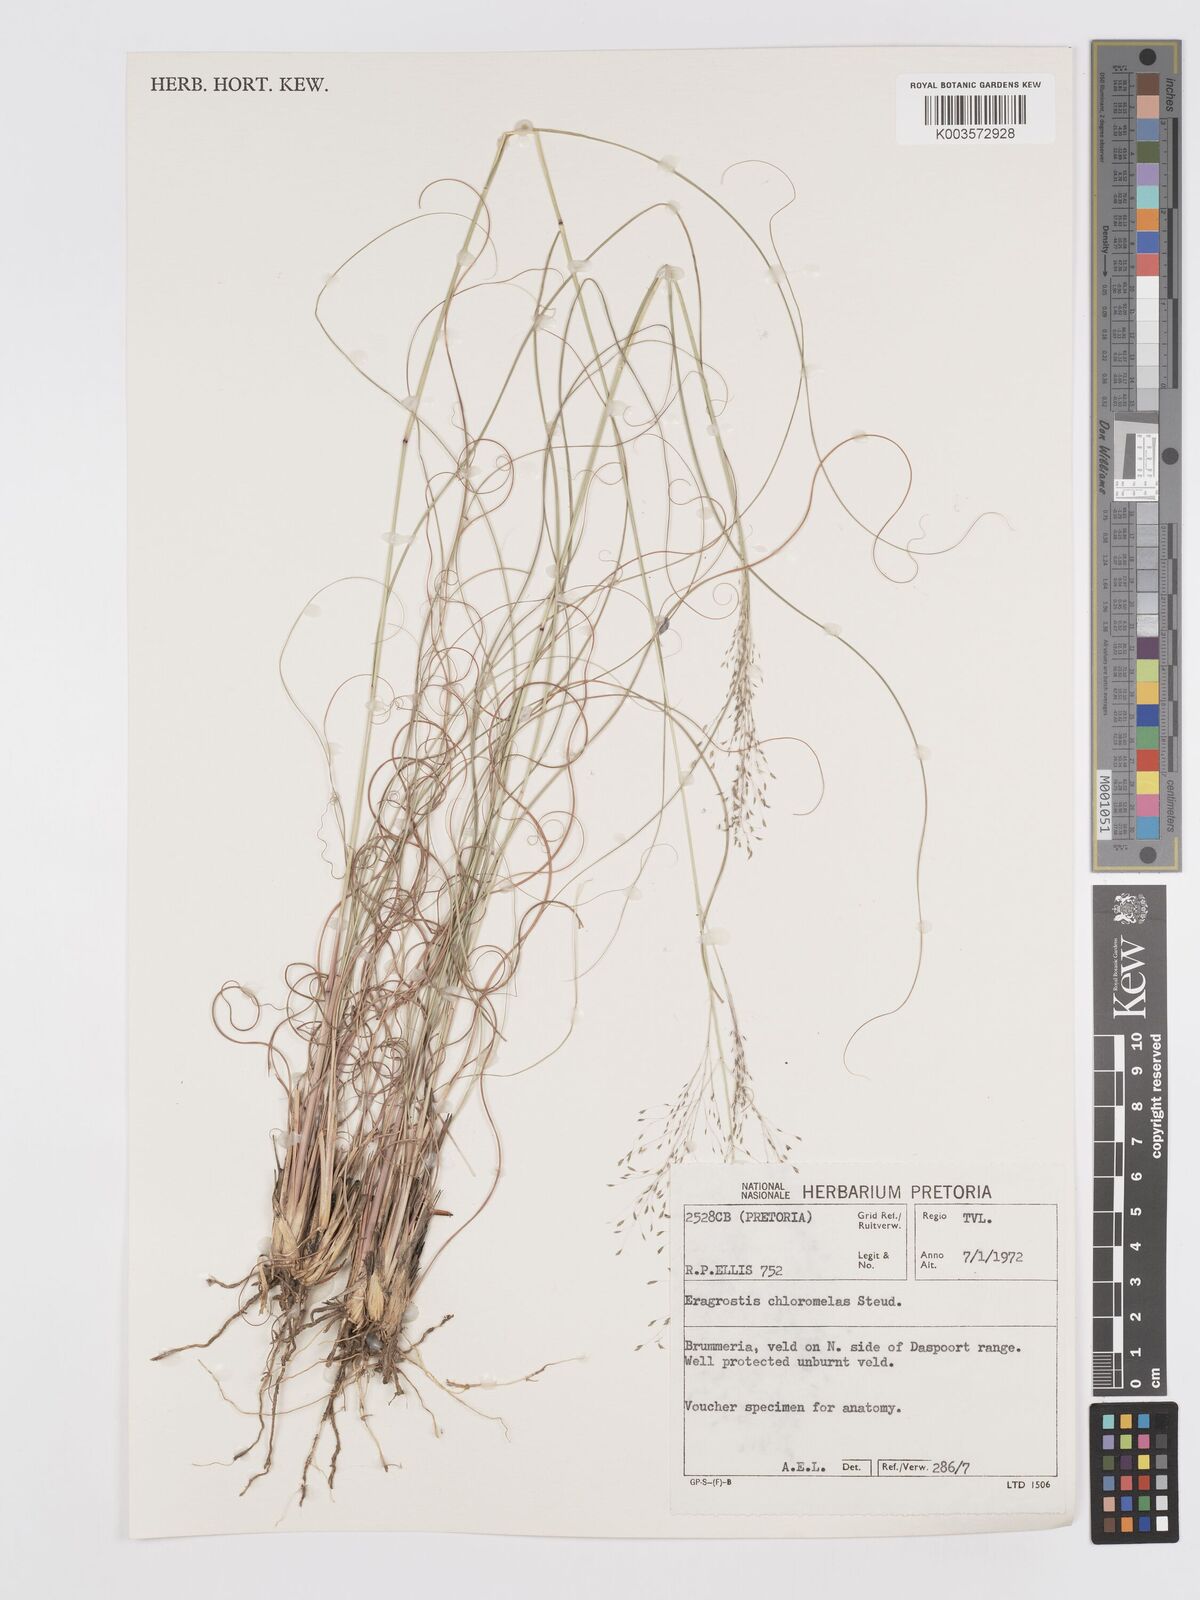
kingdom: Plantae
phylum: Tracheophyta
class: Liliopsida
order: Poales
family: Poaceae
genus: Eragrostis
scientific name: Eragrostis curvula
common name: African love-grass
